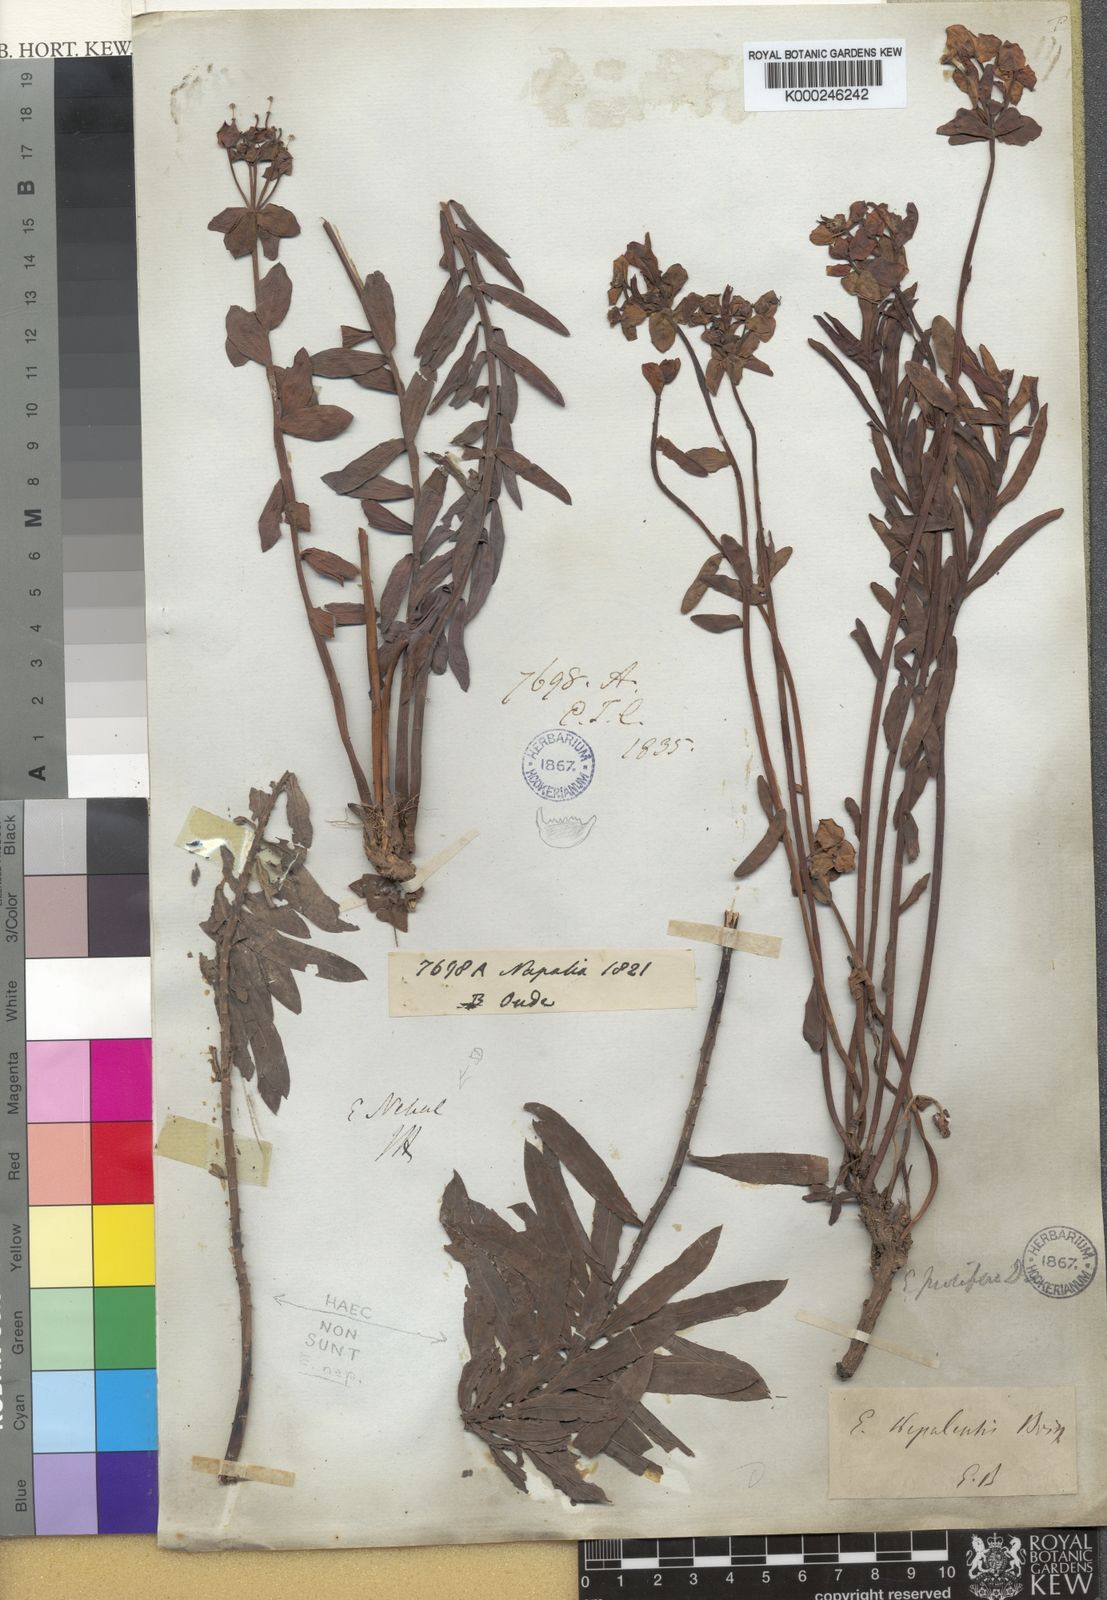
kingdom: Plantae
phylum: Tracheophyta
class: Magnoliopsida
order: Malpighiales
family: Euphorbiaceae
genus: Euphorbia
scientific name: Euphorbia obovata
